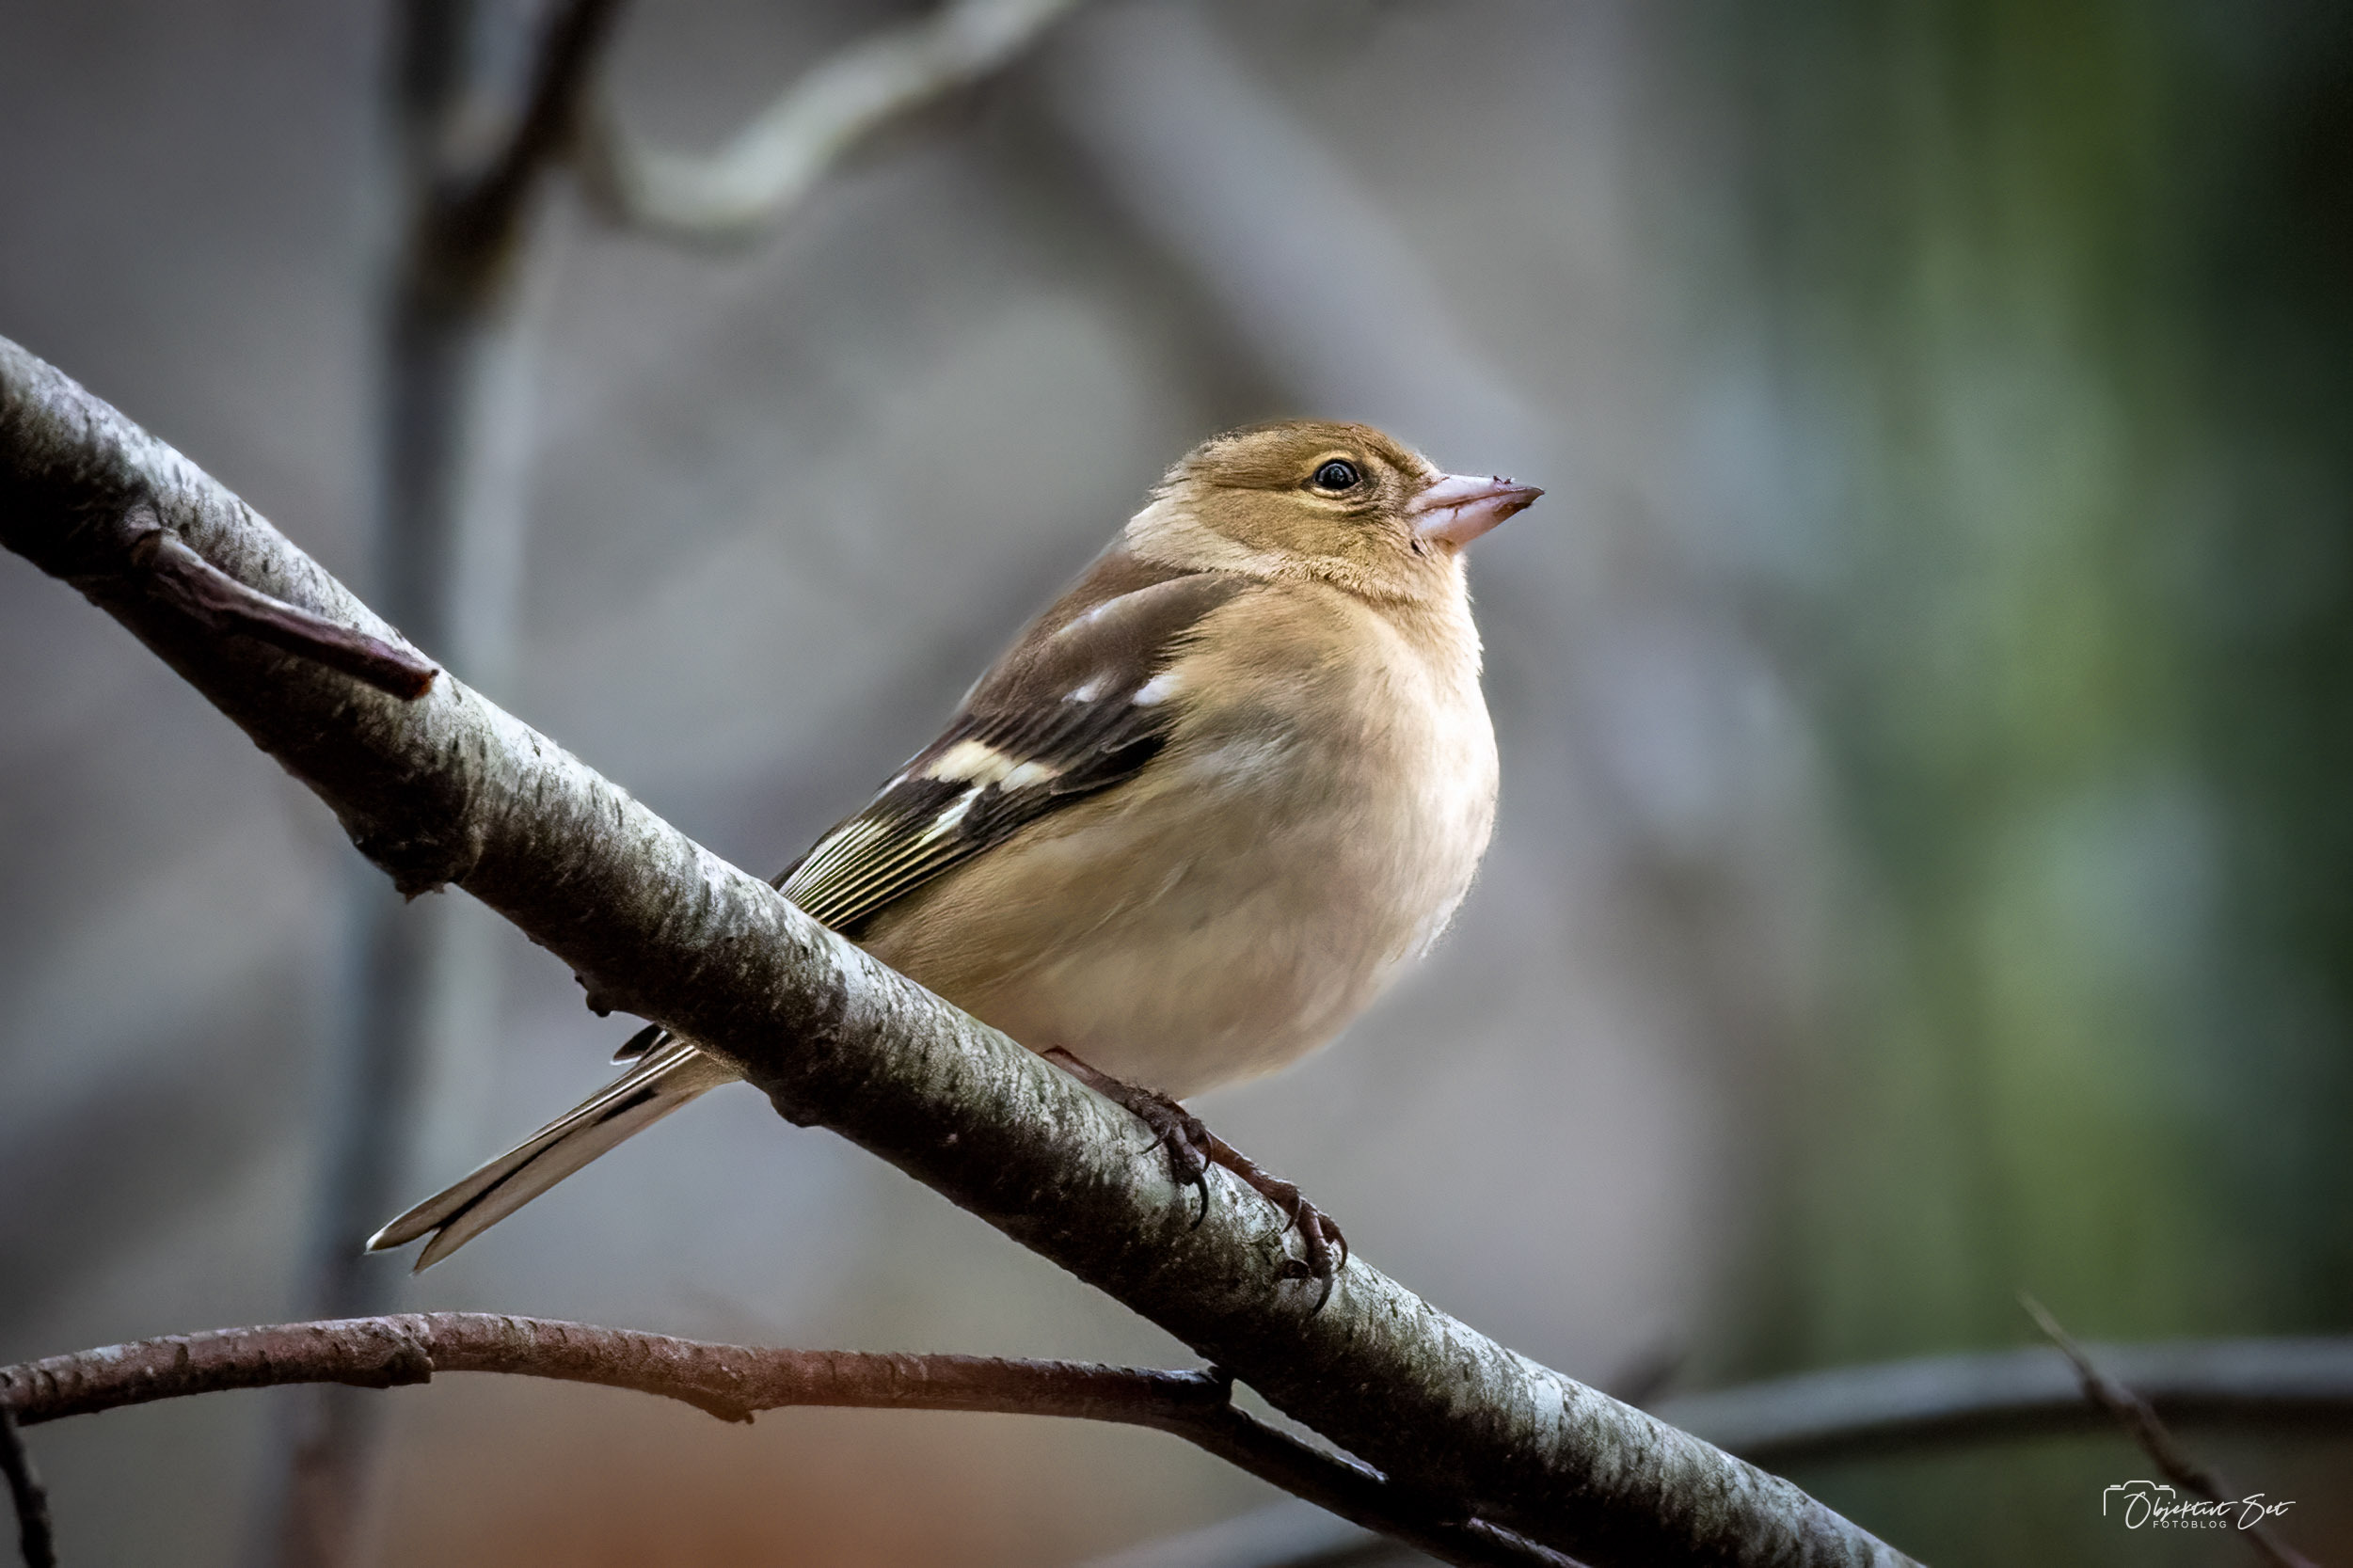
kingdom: Animalia
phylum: Chordata
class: Aves
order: Passeriformes
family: Fringillidae
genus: Fringilla
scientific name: Fringilla coelebs
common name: Bogfinke
